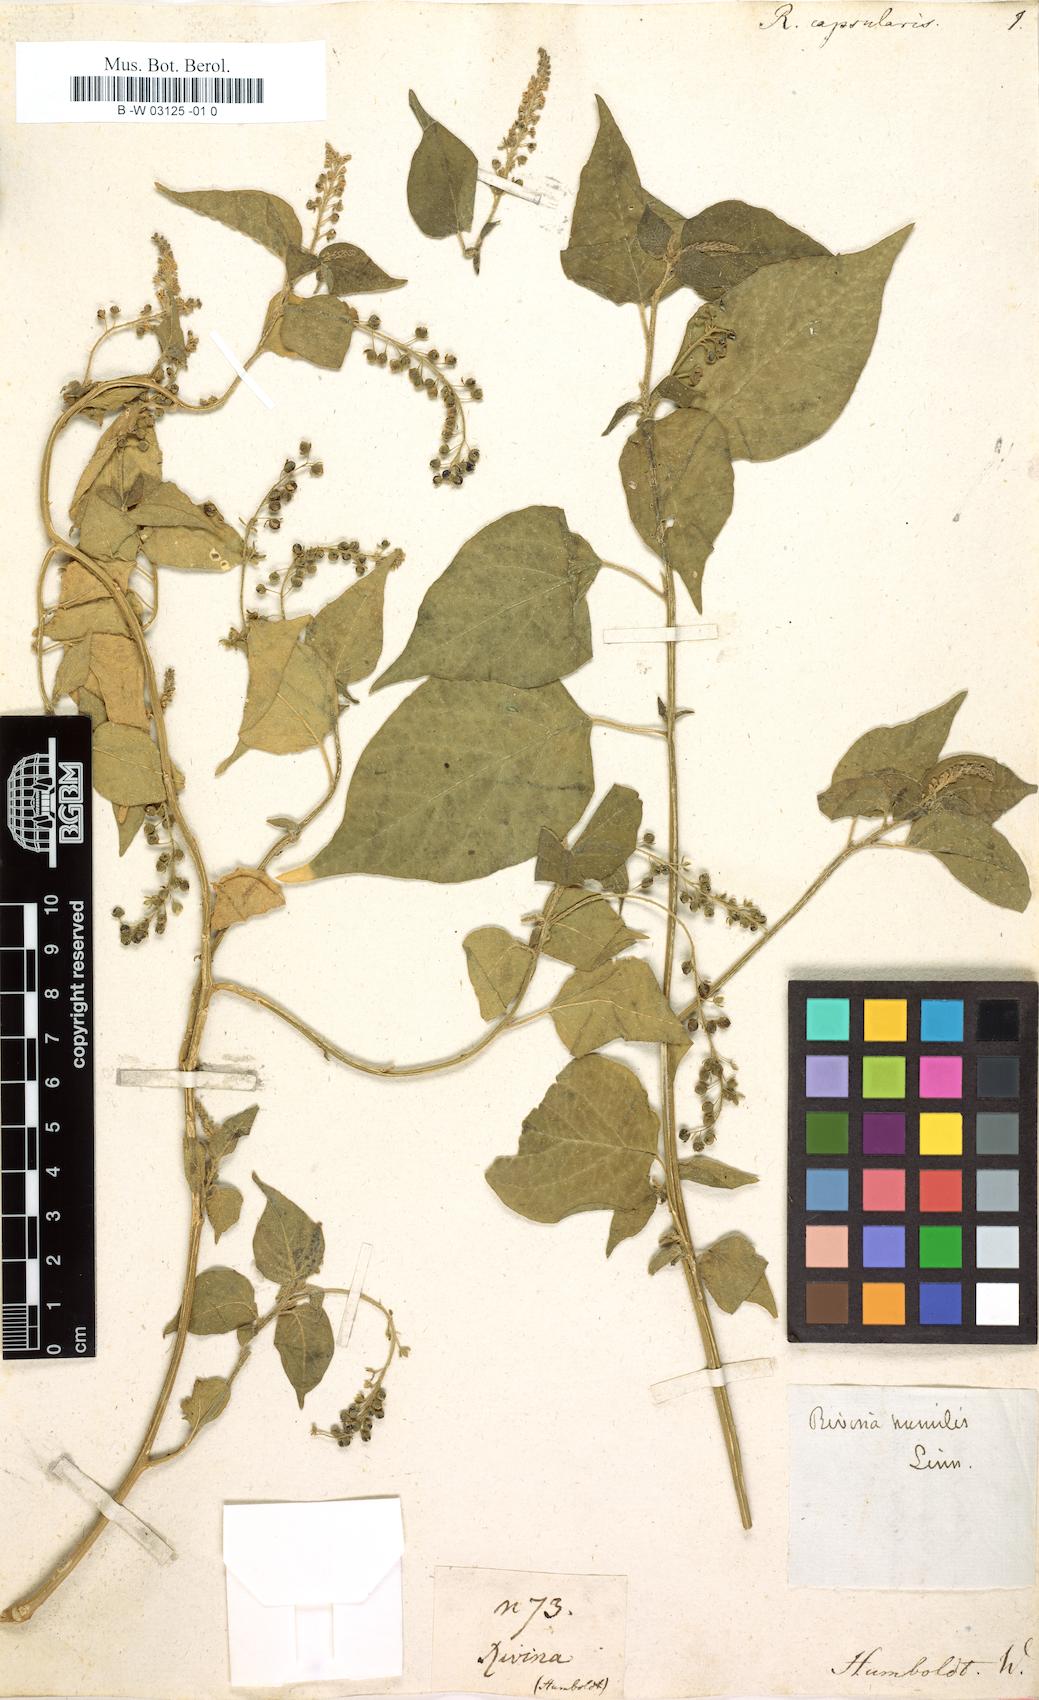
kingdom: Plantae
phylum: Tracheophyta
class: Magnoliopsida
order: Caryophyllales
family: Phytolaccaceae
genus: Rivina
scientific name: Rivina
